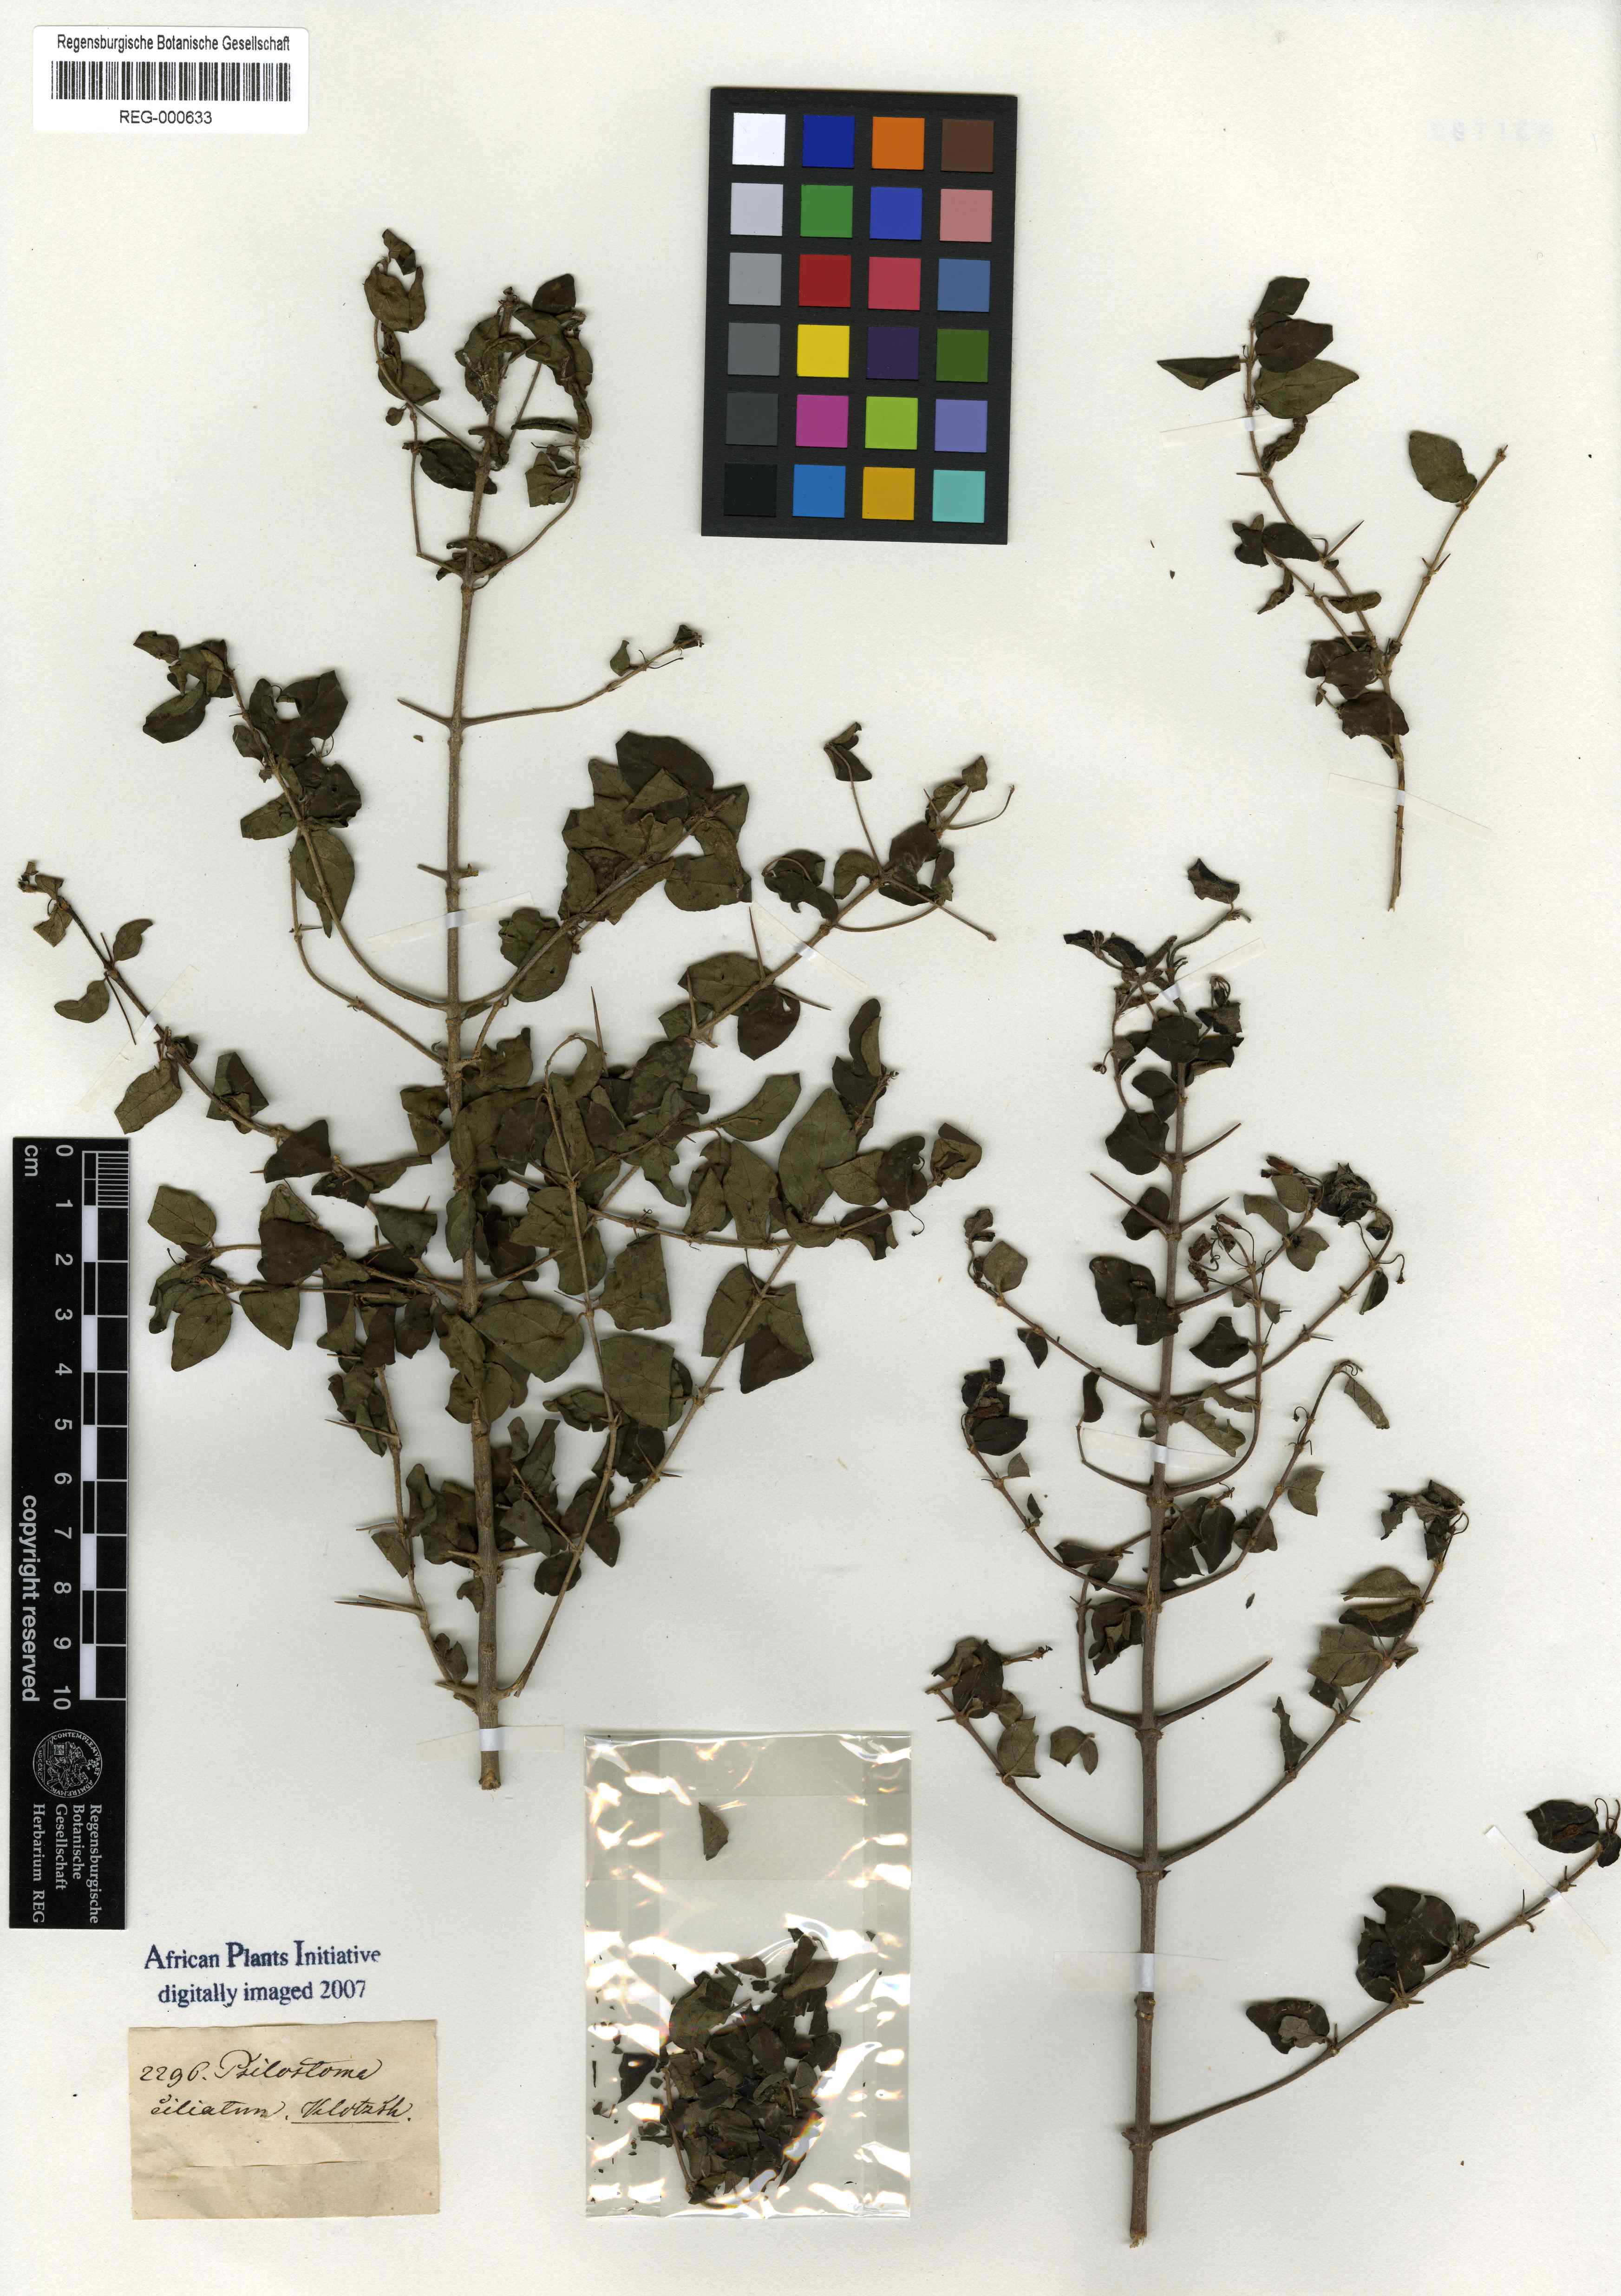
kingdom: Plantae
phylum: Tracheophyta
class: Magnoliopsida
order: Gentianales
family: Rubiaceae
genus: Canthium
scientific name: Canthium ciliatum
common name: Hairy turkey-berry
